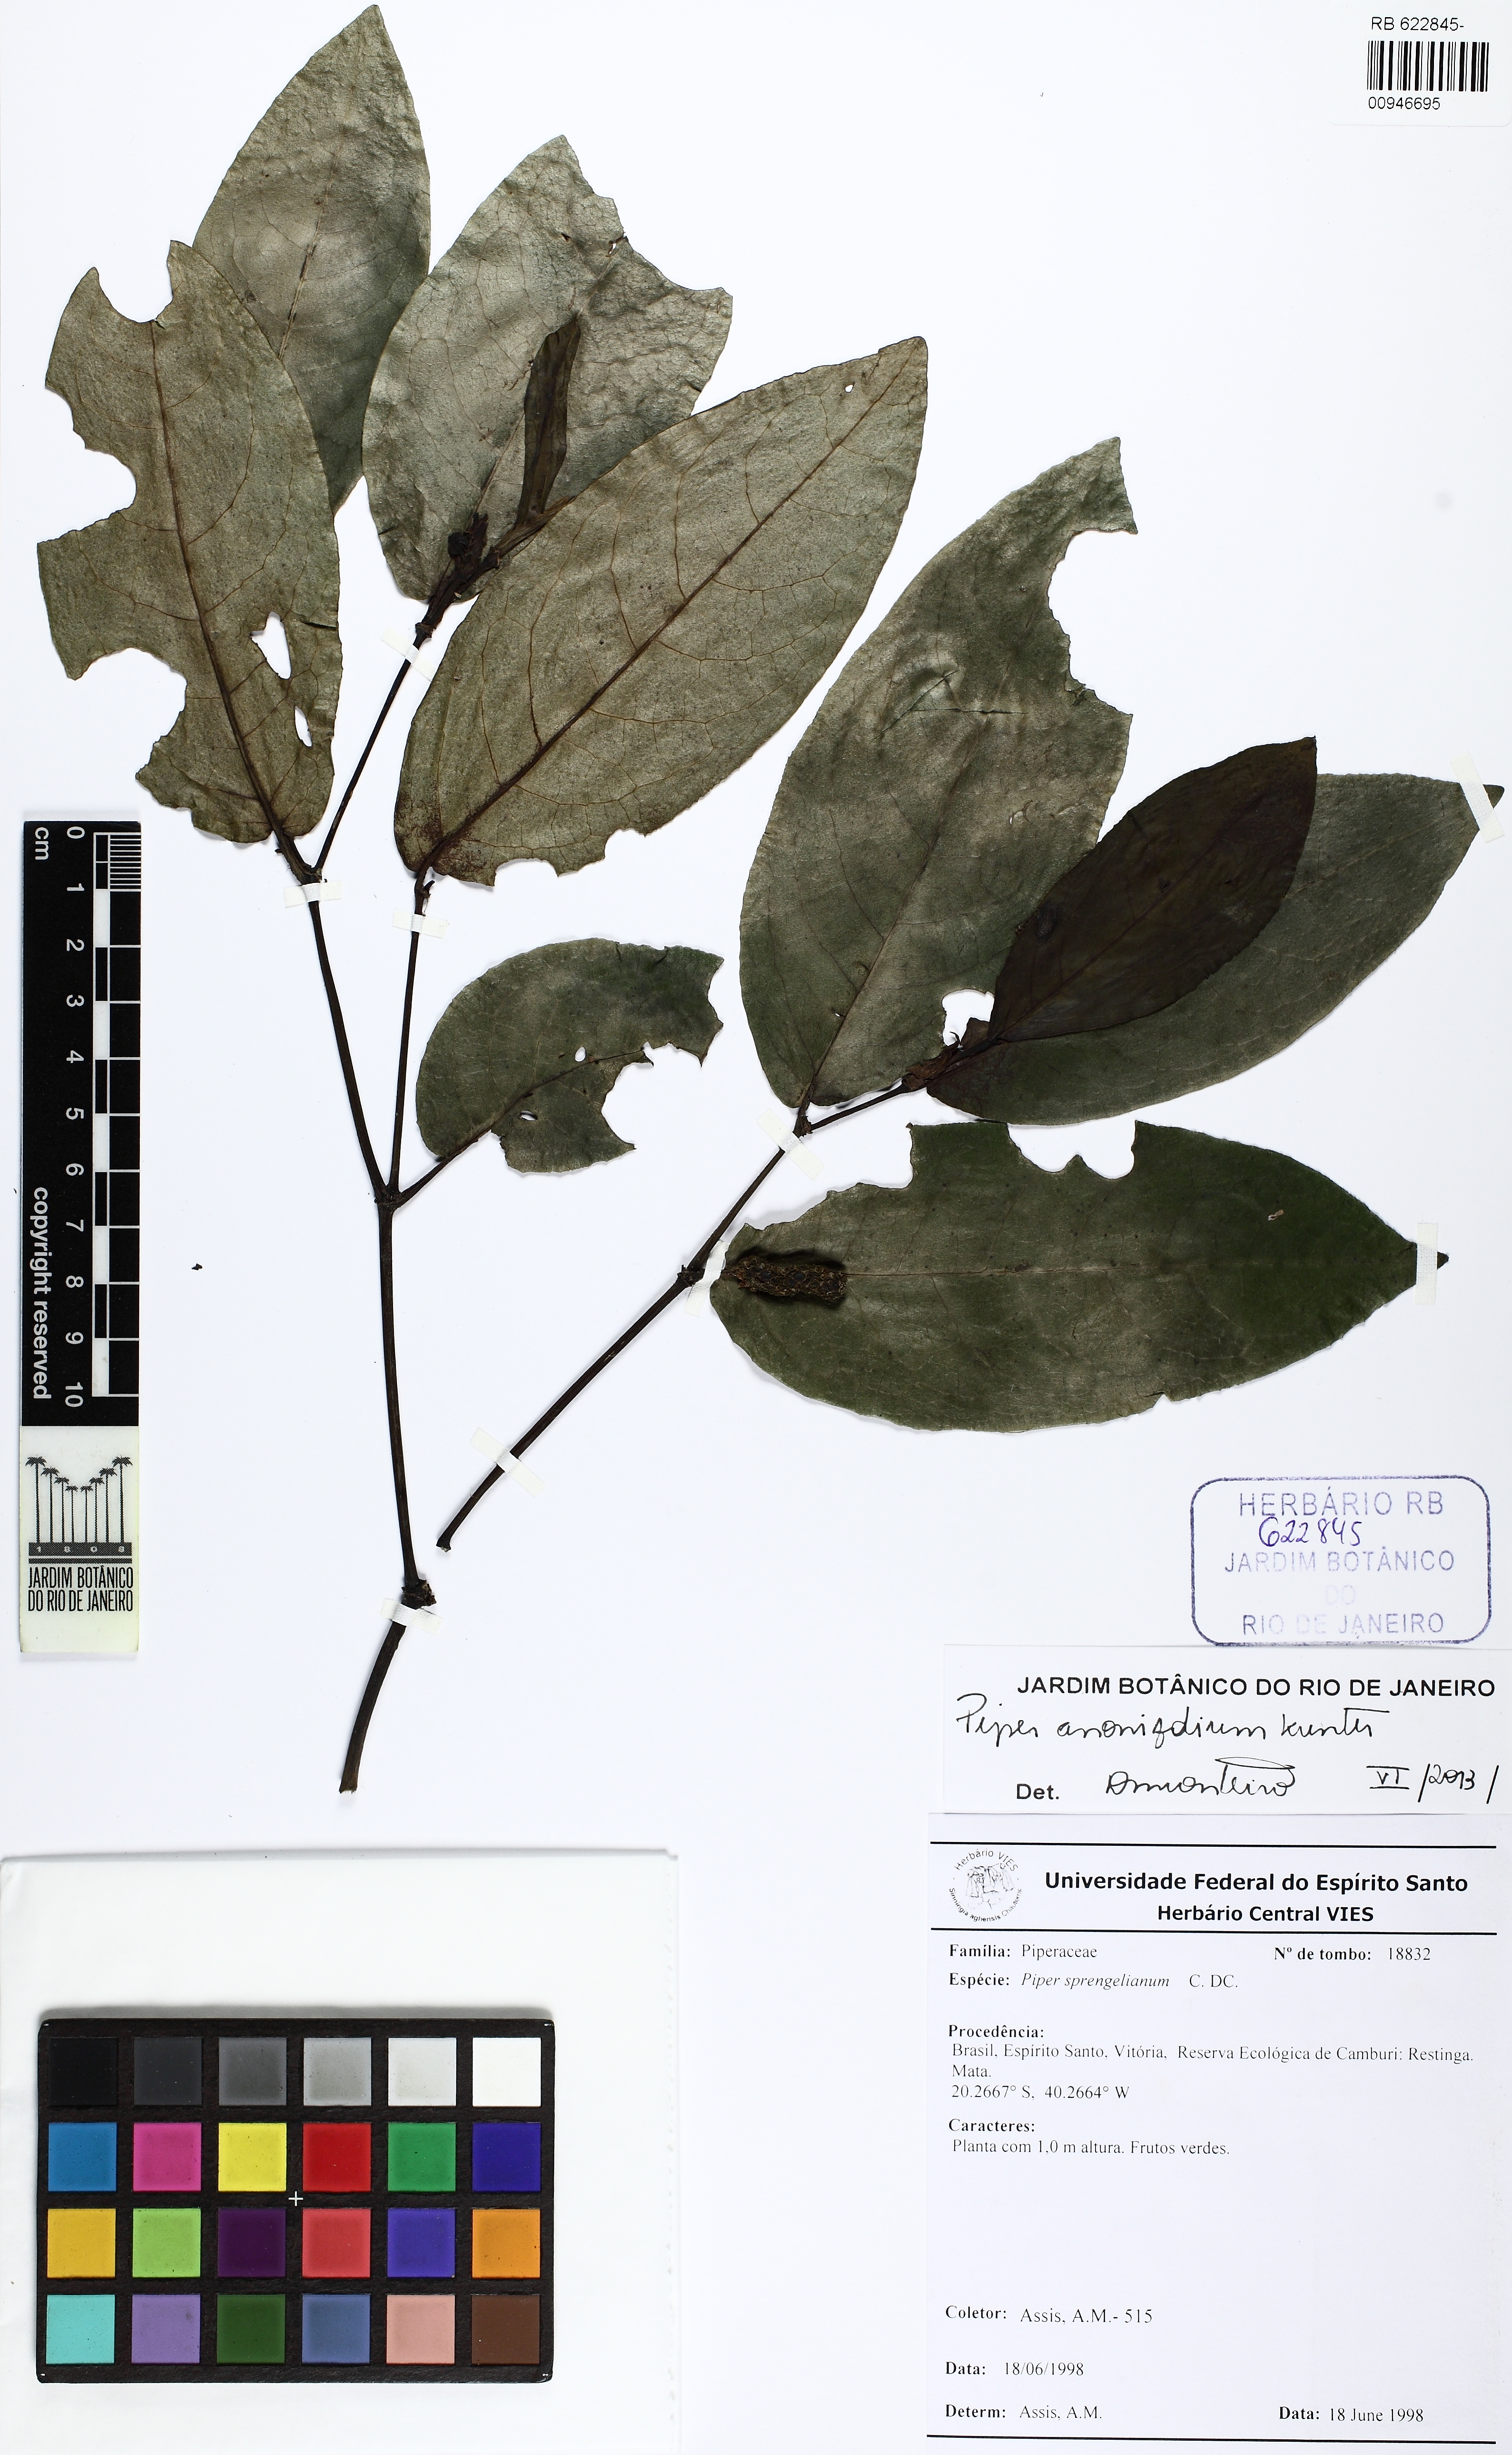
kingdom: Plantae
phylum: Tracheophyta
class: Magnoliopsida
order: Piperales
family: Piperaceae
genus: Piper
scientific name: Piper anonifolium
